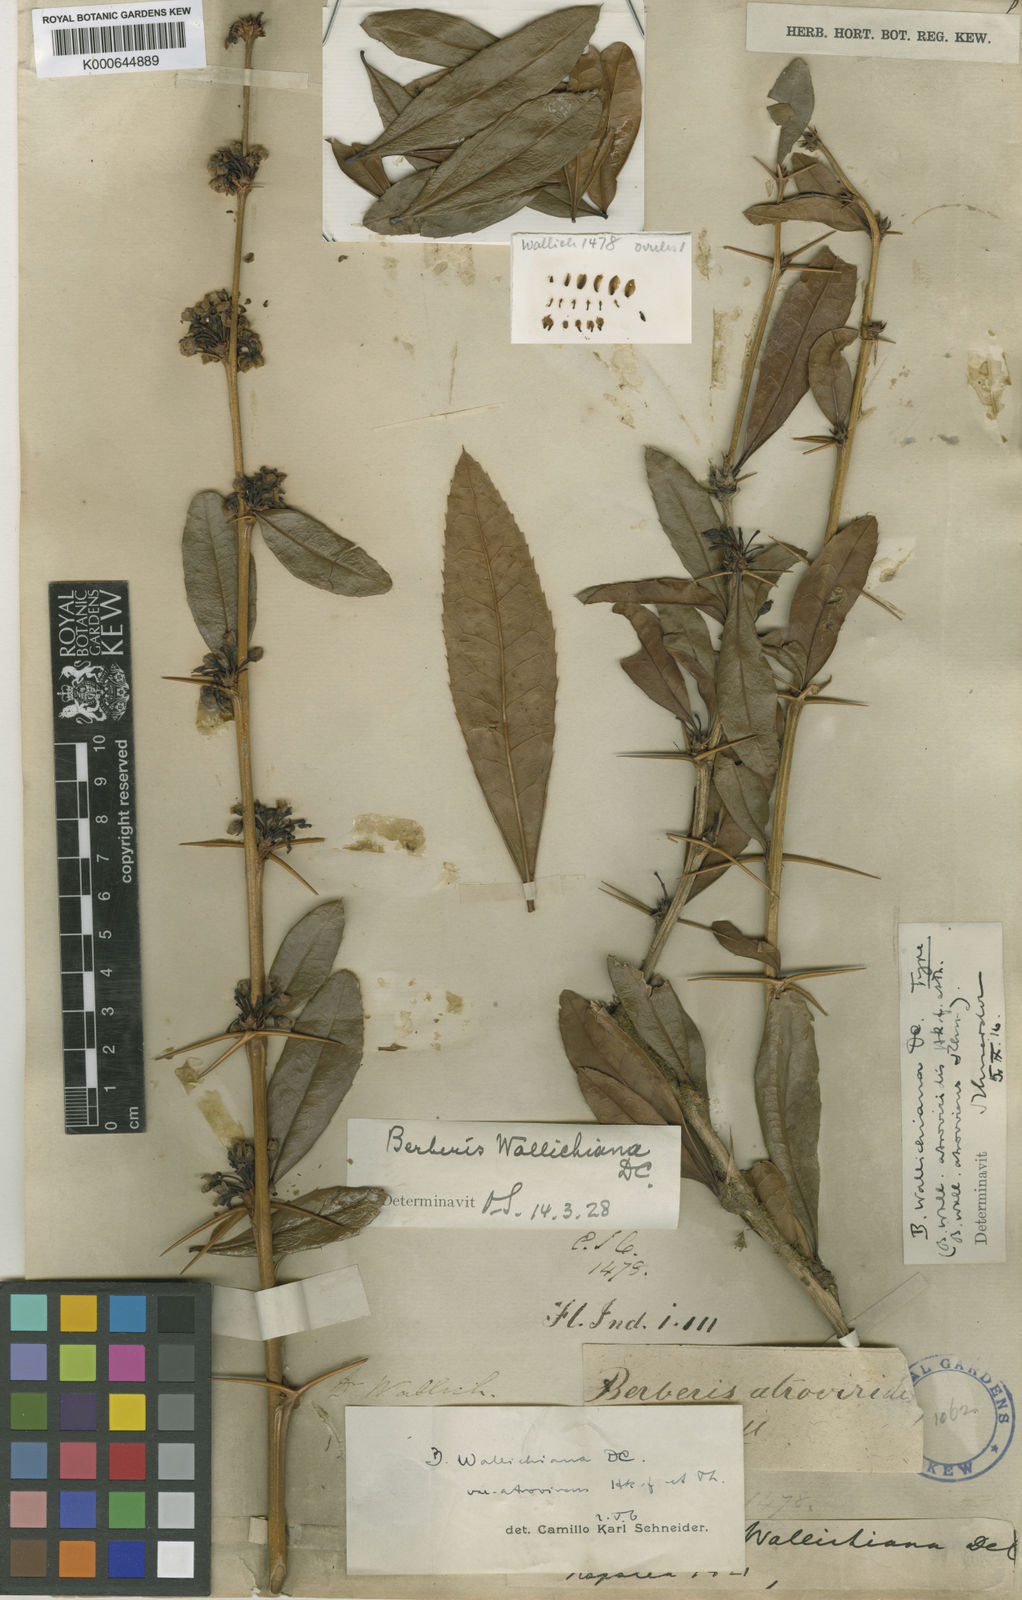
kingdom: Plantae
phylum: Tracheophyta
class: Magnoliopsida
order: Ranunculales
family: Berberidaceae
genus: Berberis
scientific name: Berberis wallichiana
